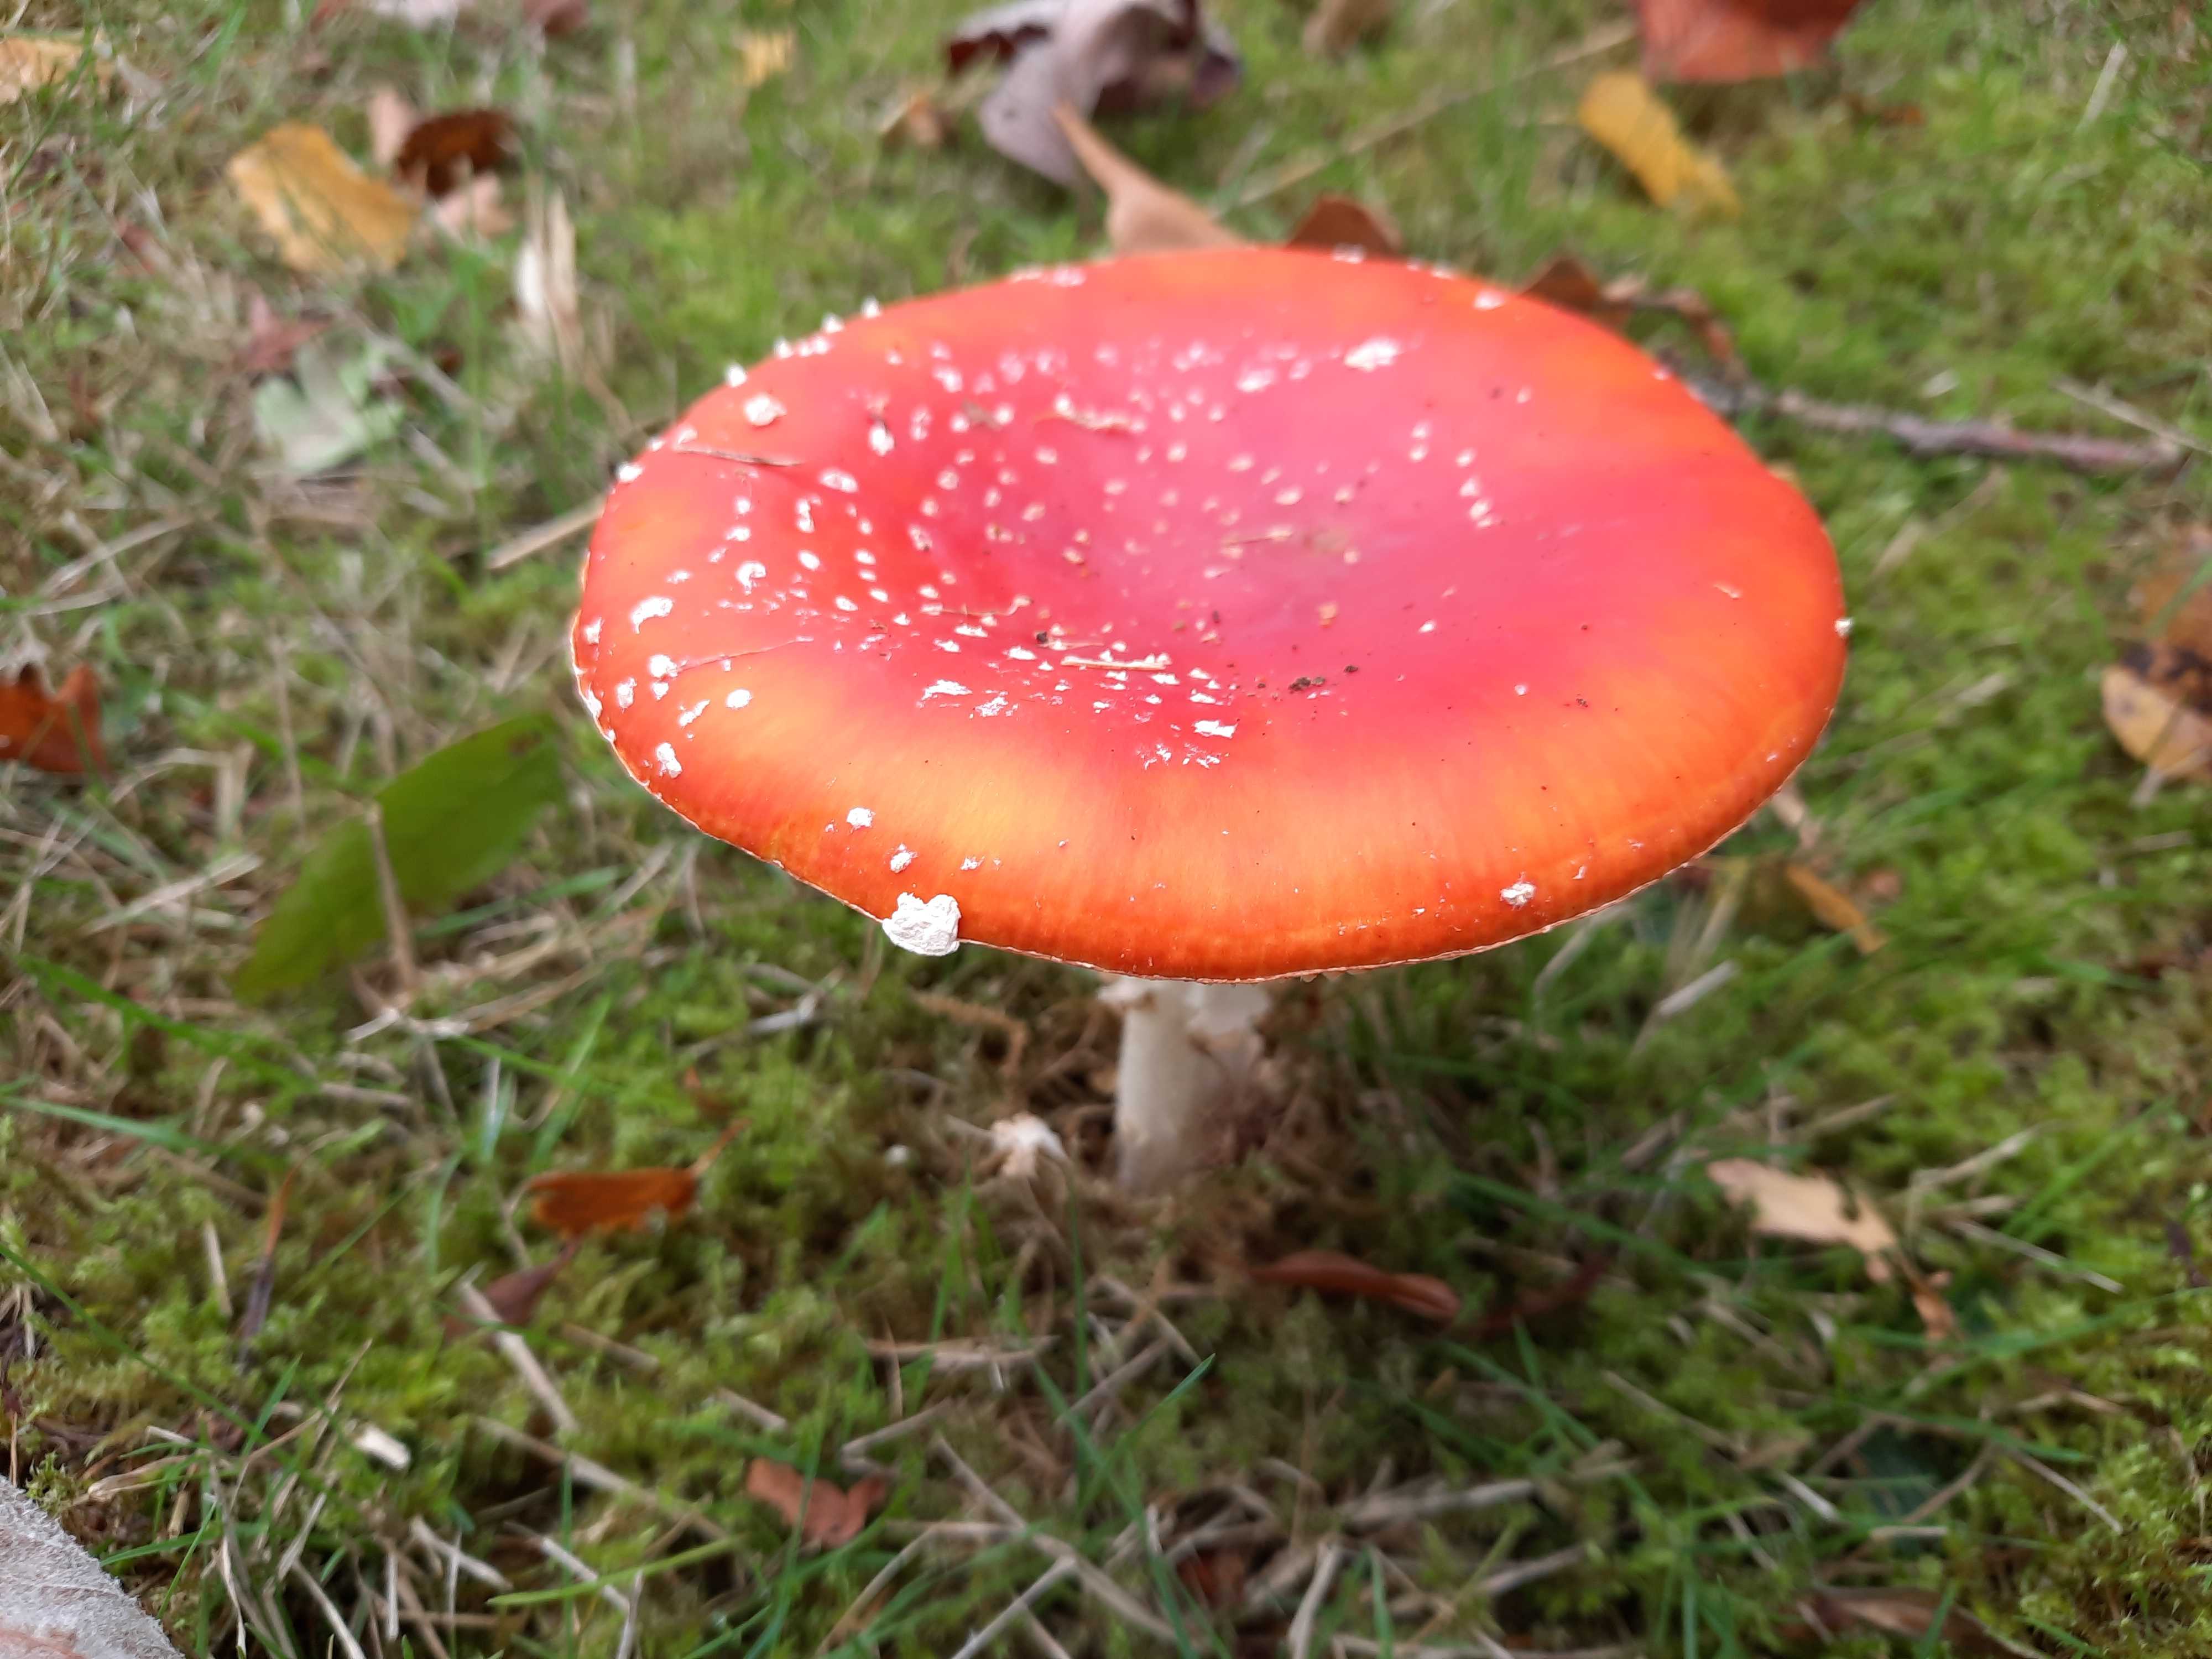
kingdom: Fungi
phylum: Basidiomycota
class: Agaricomycetes
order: Agaricales
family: Amanitaceae
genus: Amanita
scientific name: Amanita muscaria
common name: rød fluesvamp
